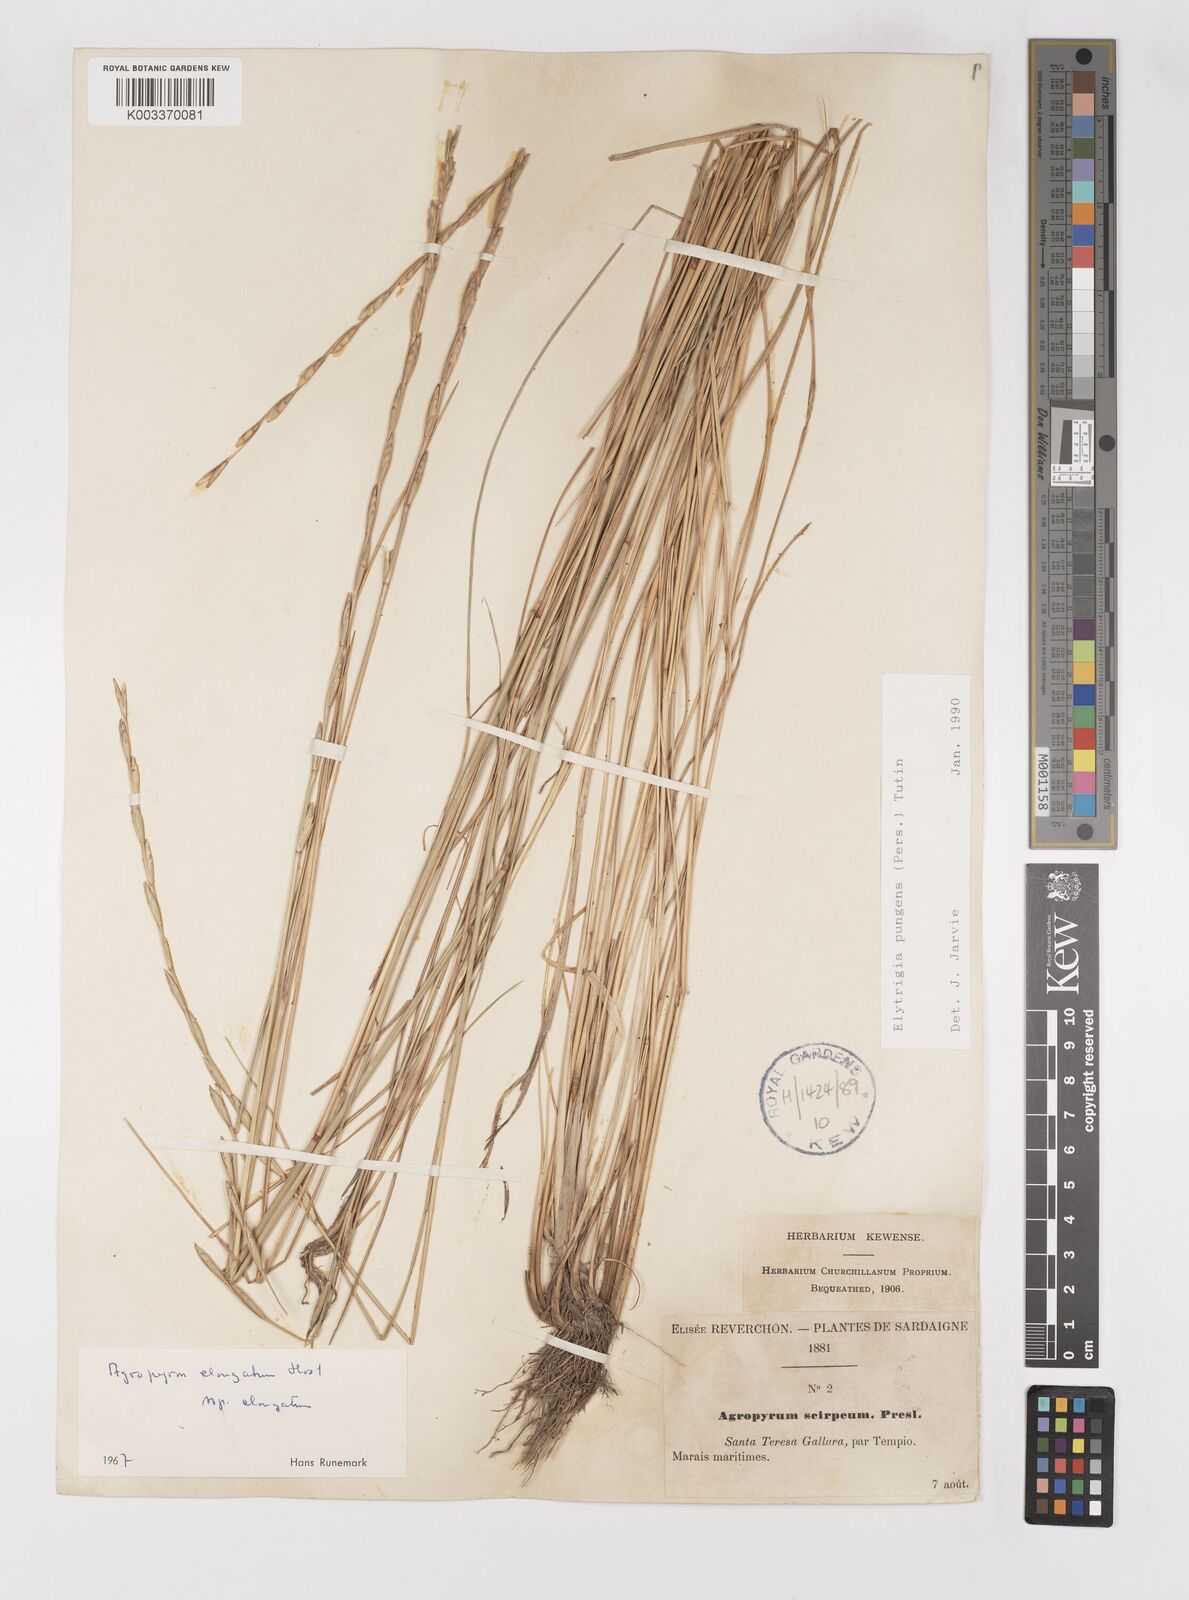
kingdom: Plantae
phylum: Tracheophyta
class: Liliopsida
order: Poales
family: Poaceae
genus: Thinopyrum
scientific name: Thinopyrum elongatum
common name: Tall wheatgrass
